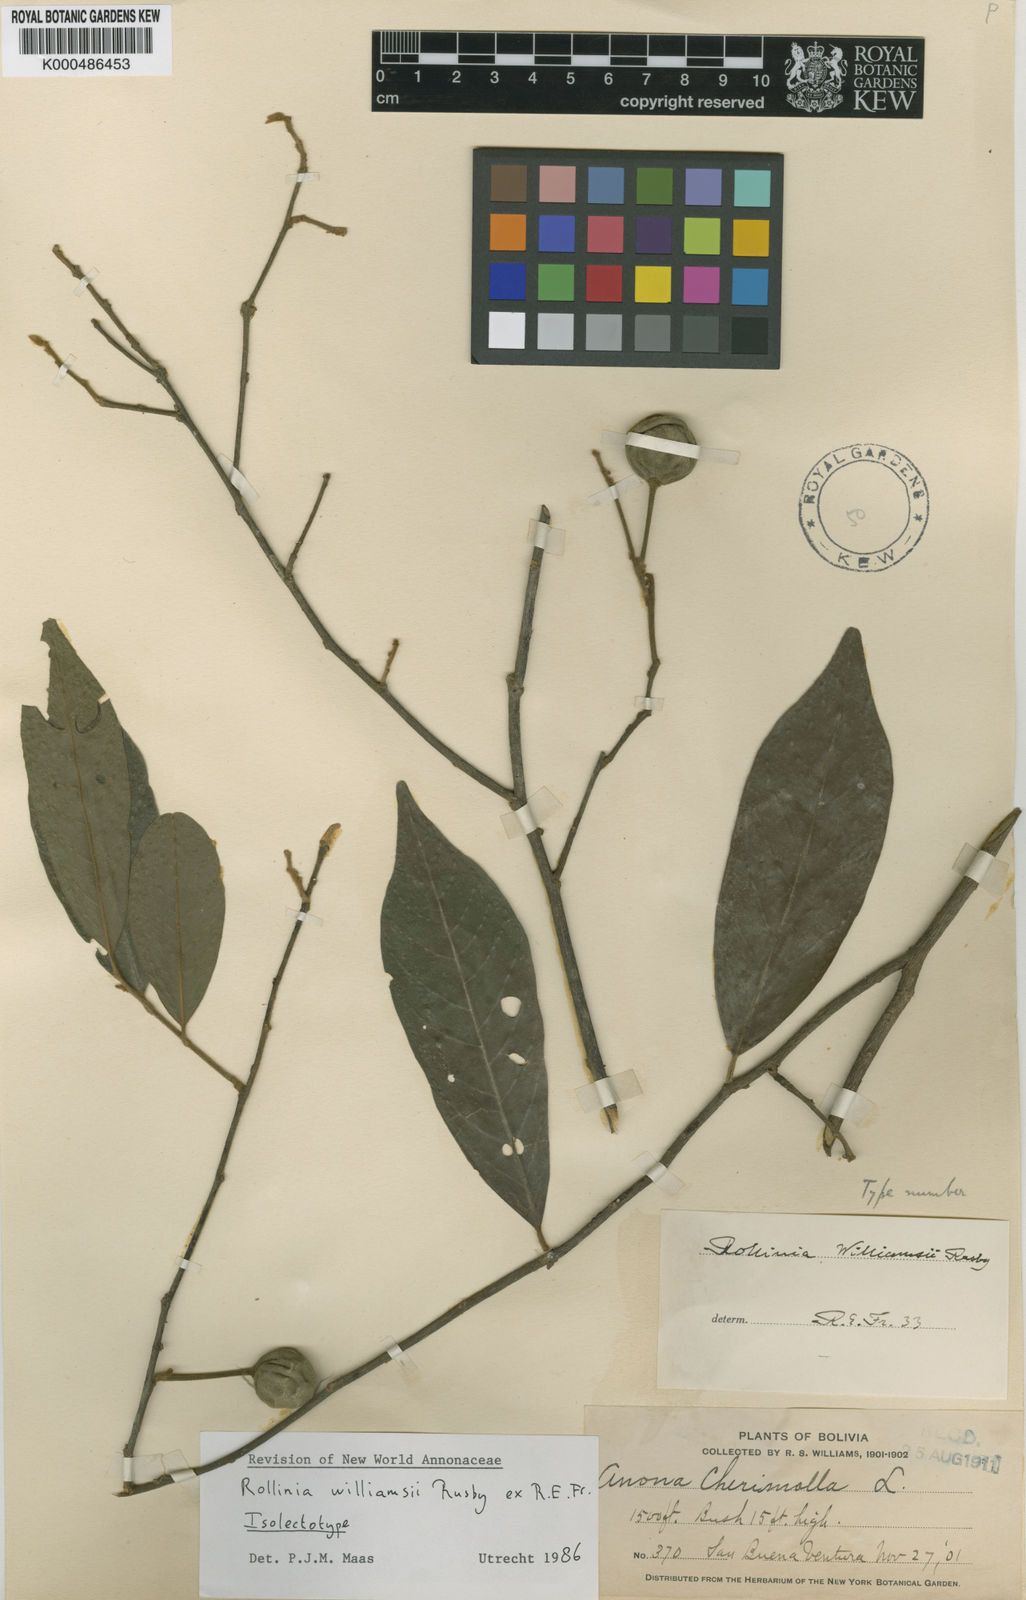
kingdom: Plantae
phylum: Tracheophyta
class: Magnoliopsida
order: Magnoliales
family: Annonaceae
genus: Annona
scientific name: Annona williamsii
